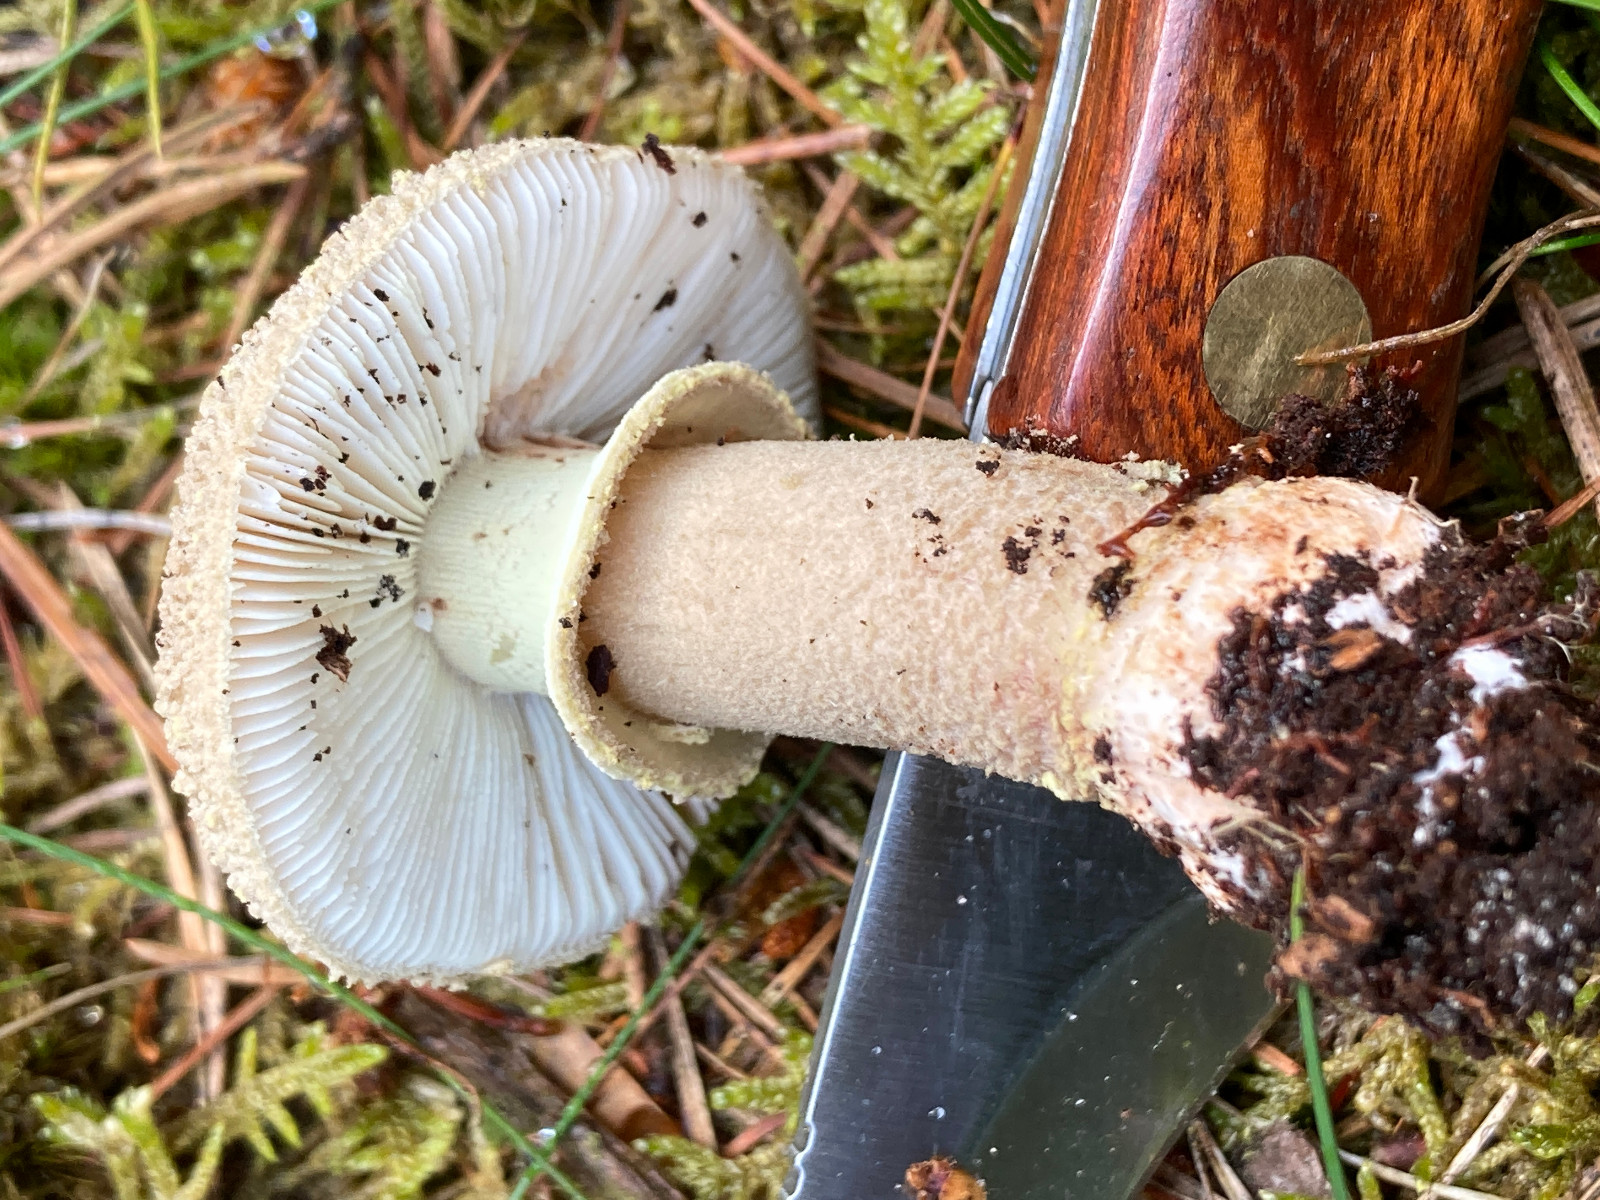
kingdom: Fungi
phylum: Basidiomycota
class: Agaricomycetes
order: Agaricales
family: Amanitaceae
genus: Amanita
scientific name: Amanita rubescens
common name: rødmende fluesvamp
